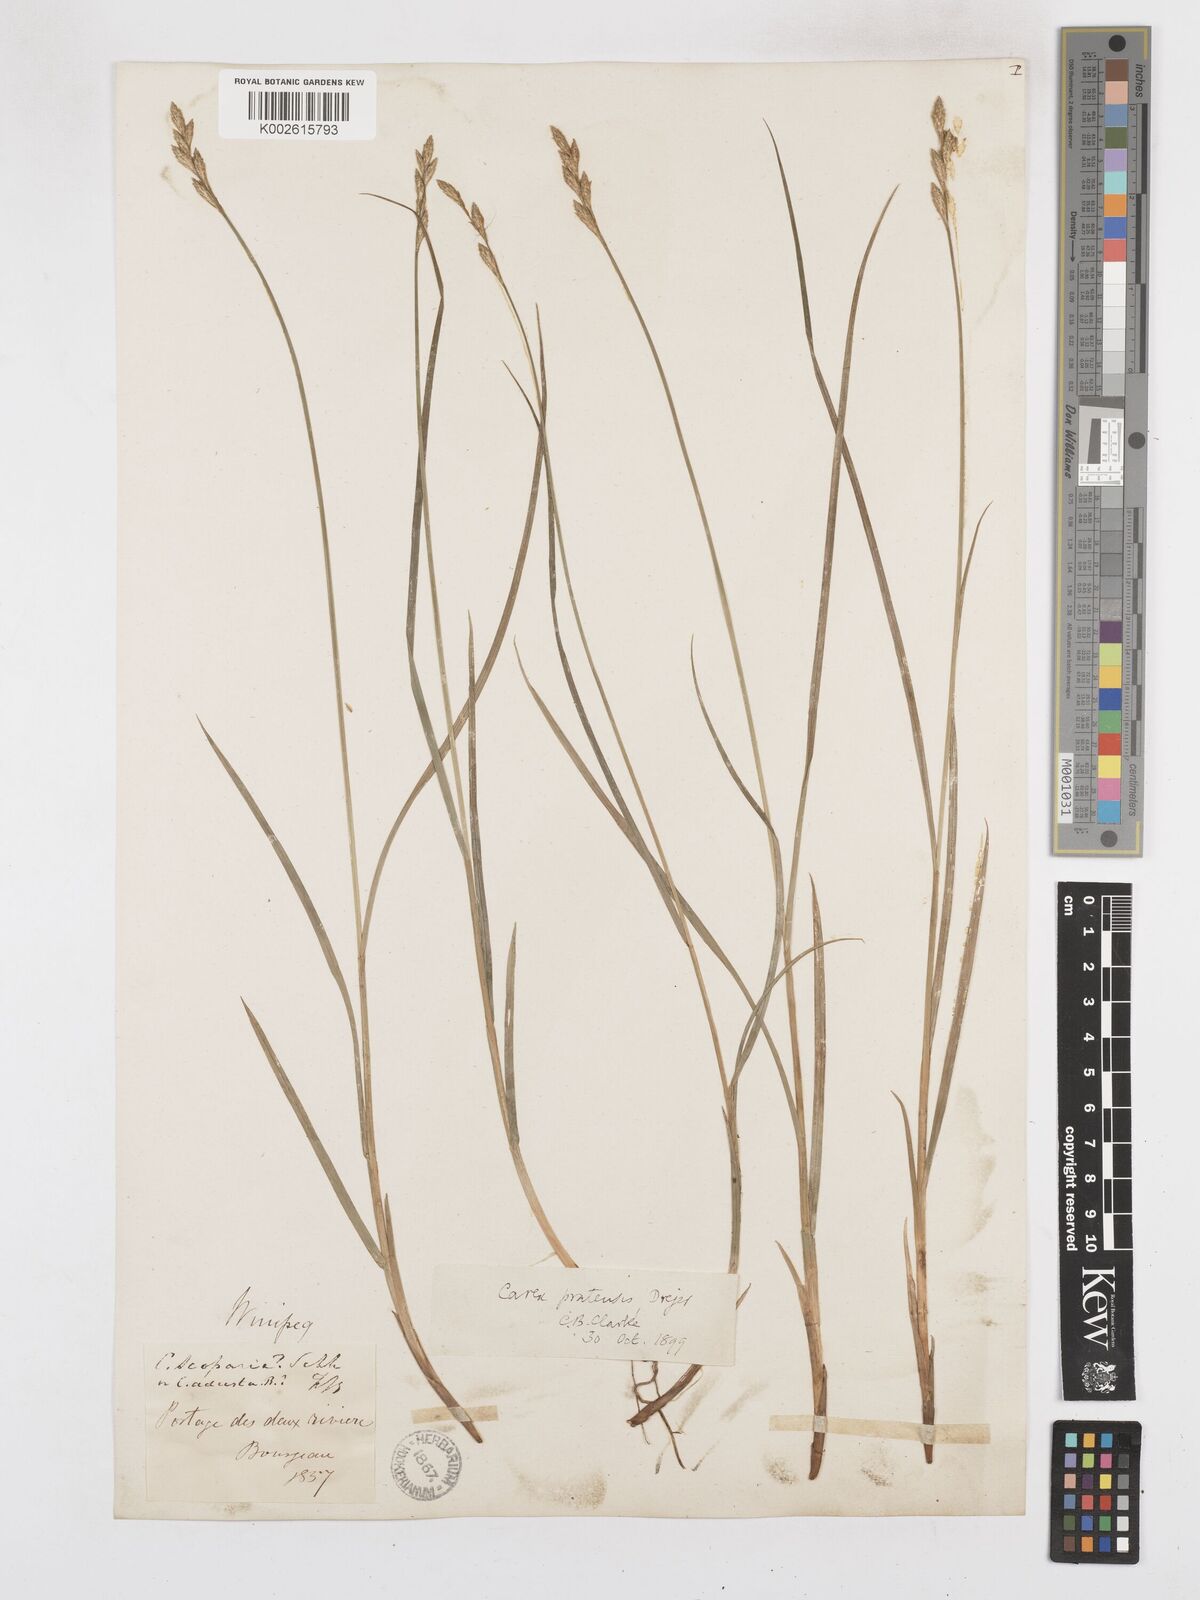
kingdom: Plantae
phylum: Tracheophyta
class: Liliopsida
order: Poales
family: Cyperaceae
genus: Carex
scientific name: Carex praticola
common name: Large-fruited oval sedge
